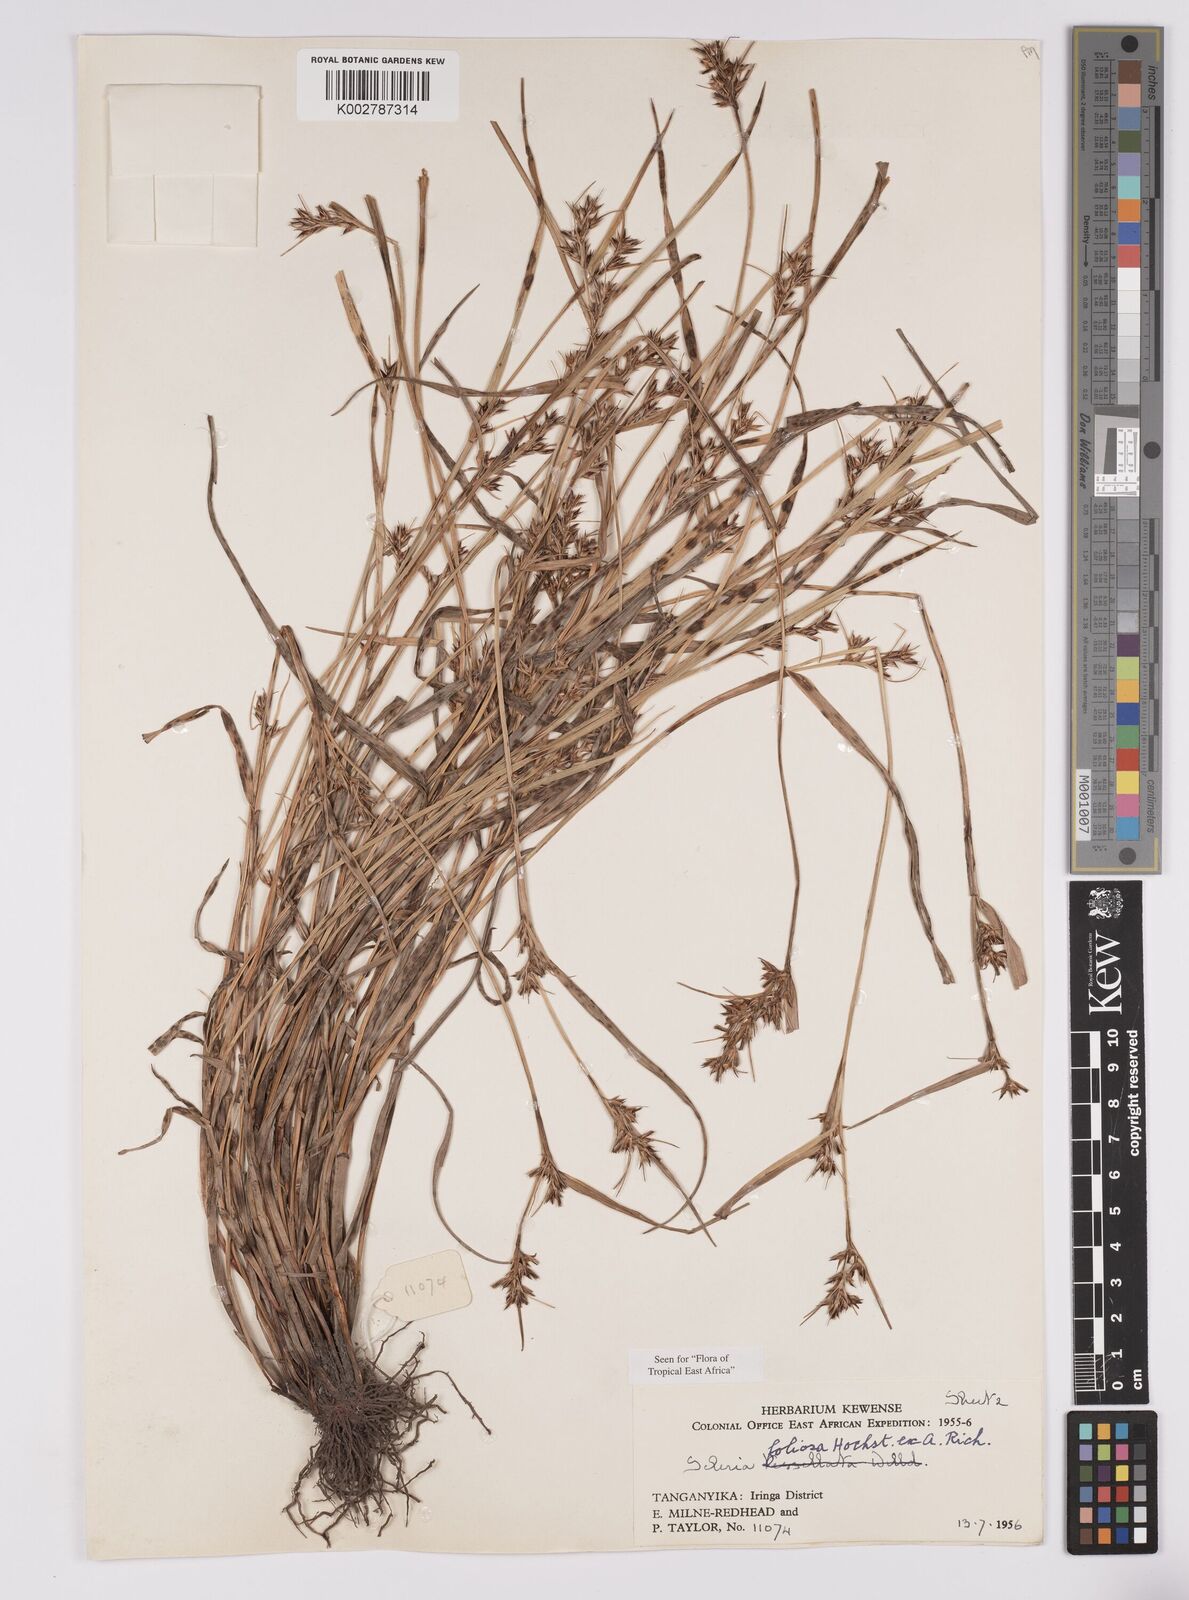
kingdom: Plantae
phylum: Tracheophyta
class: Liliopsida
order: Poales
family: Cyperaceae
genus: Scleria
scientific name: Scleria foliosa
